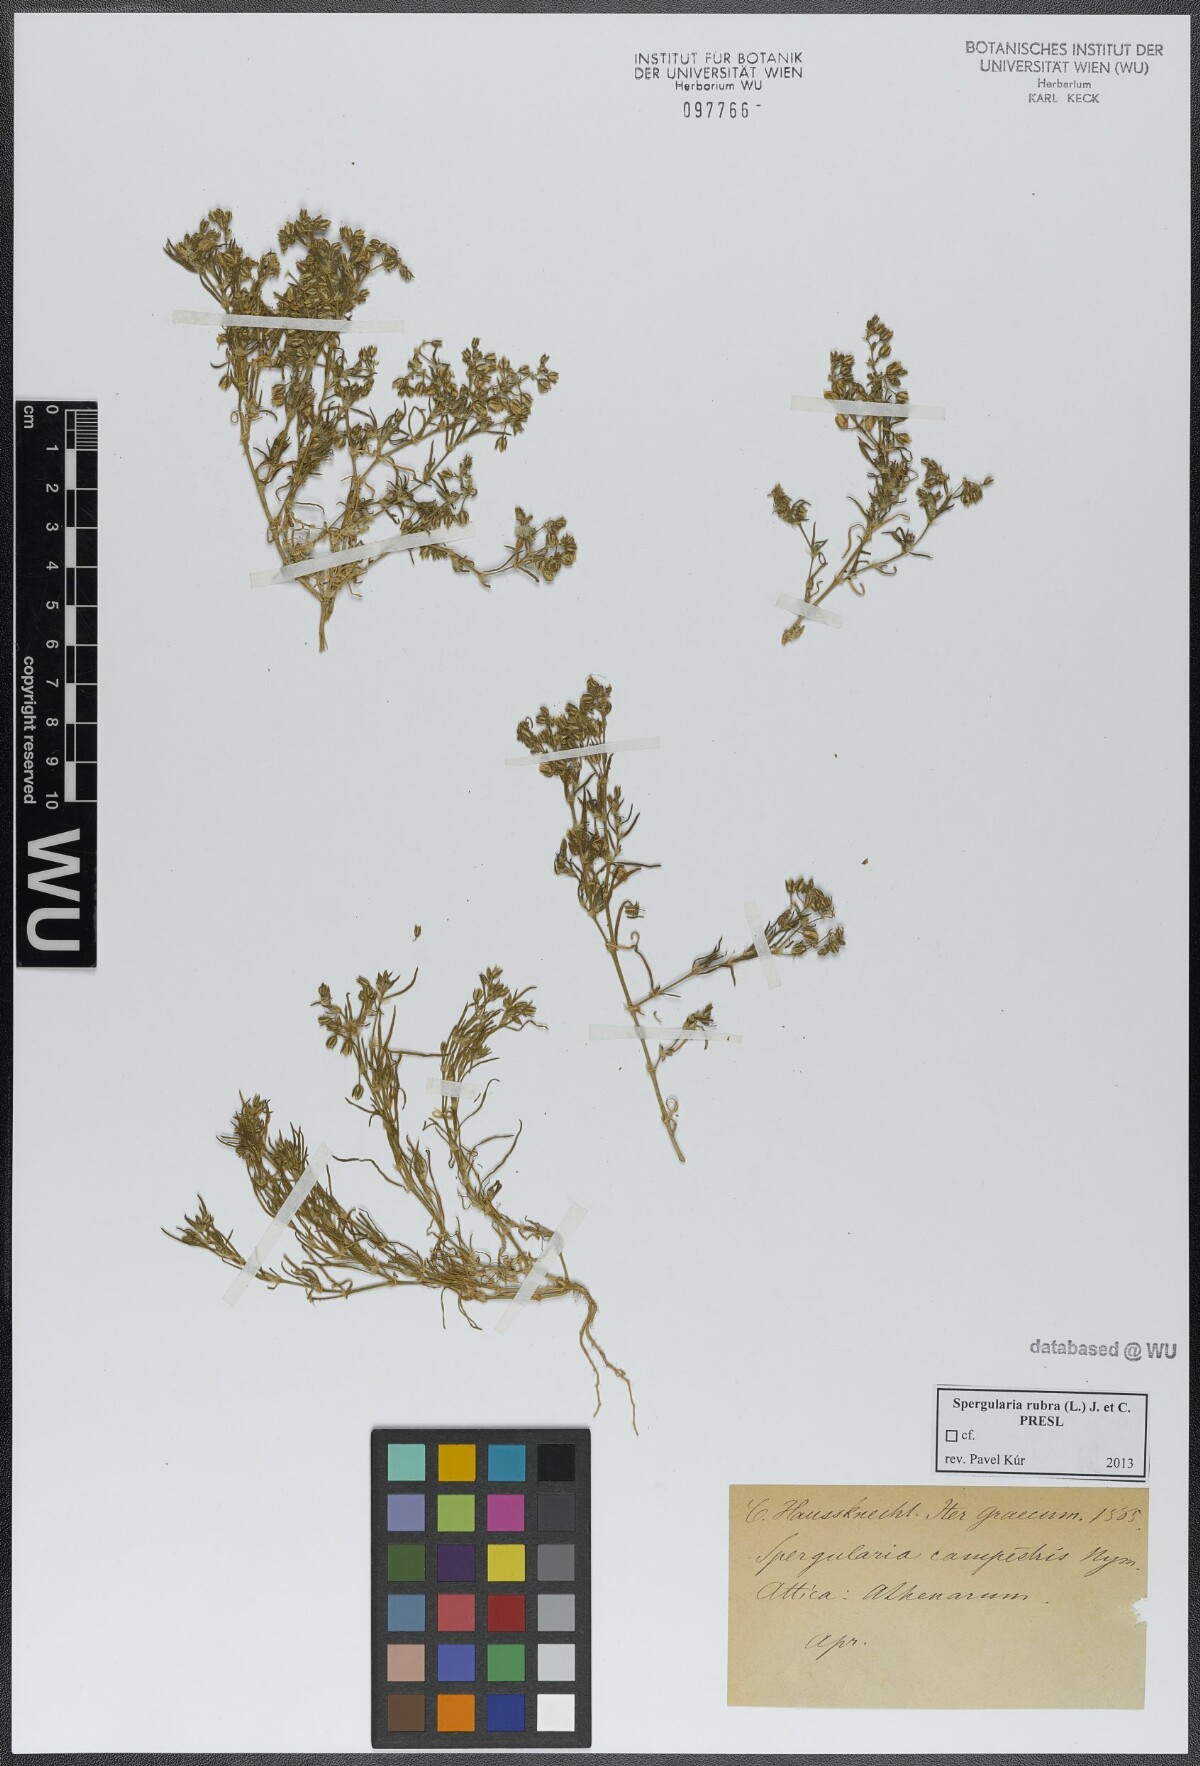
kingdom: Plantae
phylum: Tracheophyta
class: Magnoliopsida
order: Caryophyllales
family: Caryophyllaceae
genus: Spergularia
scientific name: Spergularia rubra
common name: Red sand-spurrey
